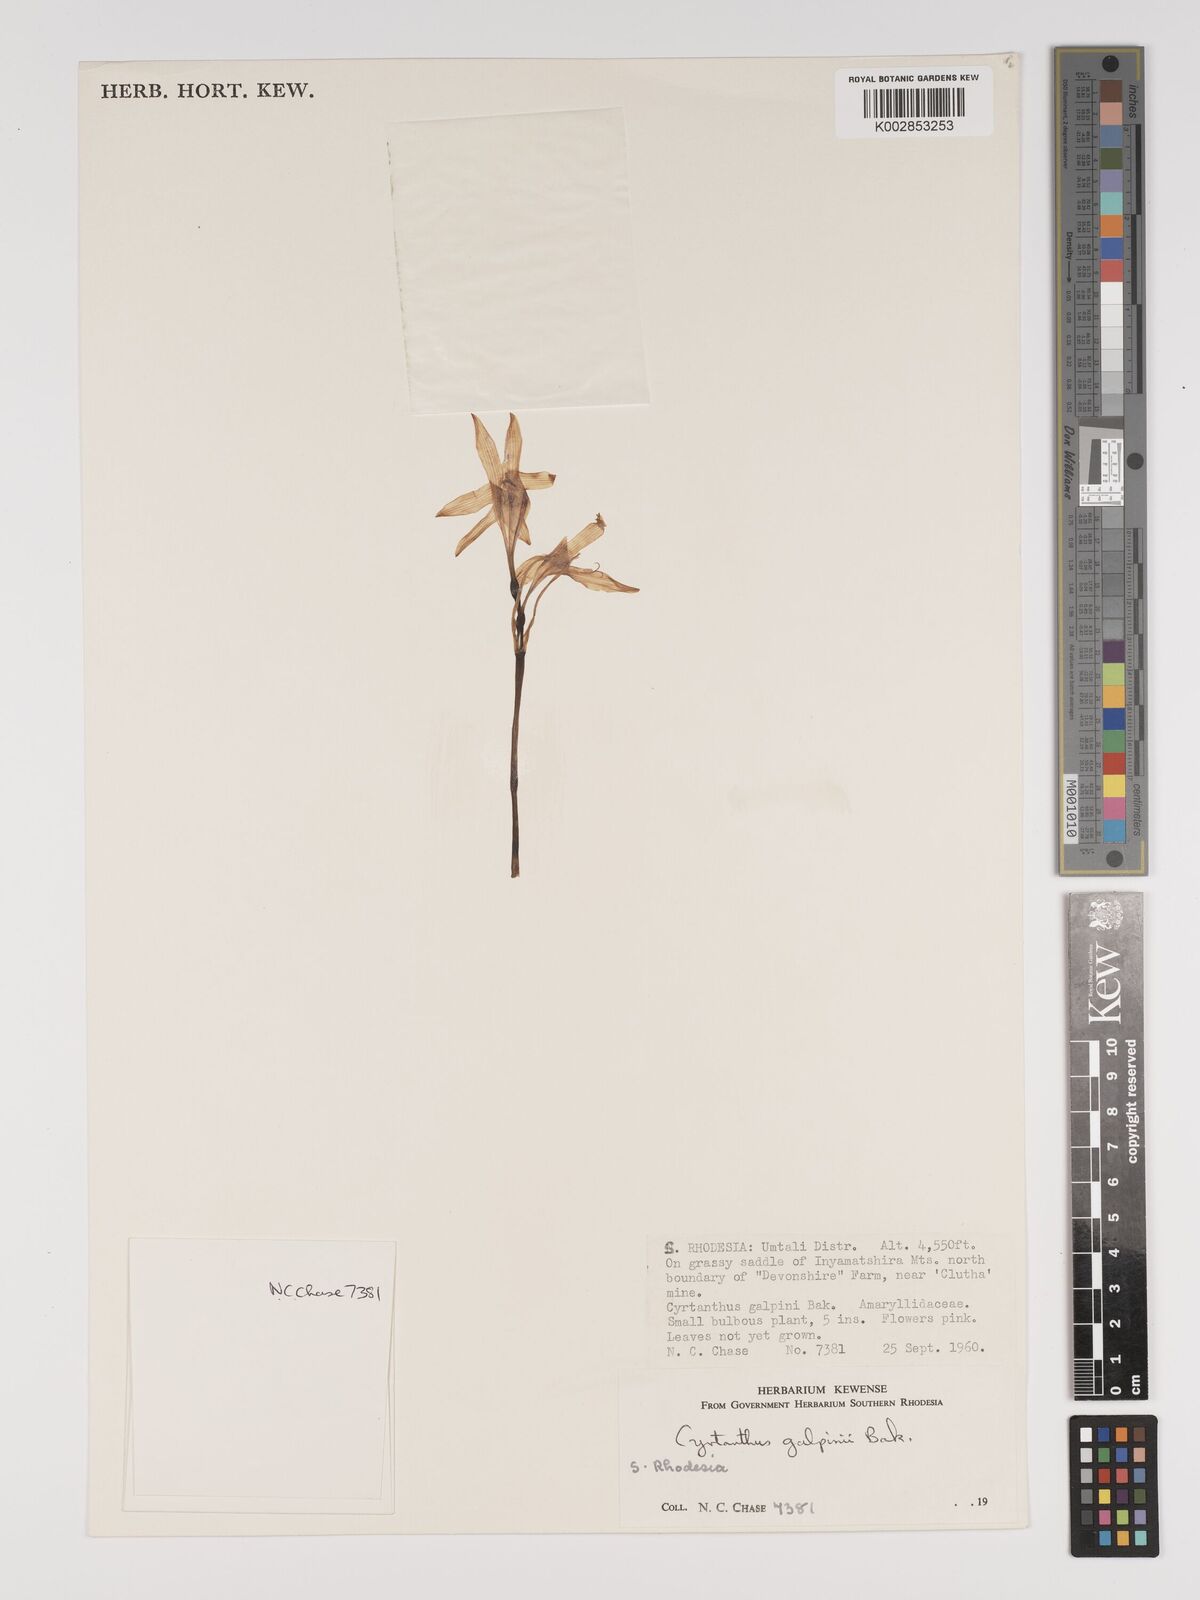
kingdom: Plantae
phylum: Tracheophyta
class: Liliopsida
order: Asparagales
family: Amaryllidaceae
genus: Cyrtanthus
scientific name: Cyrtanthus galpinii
